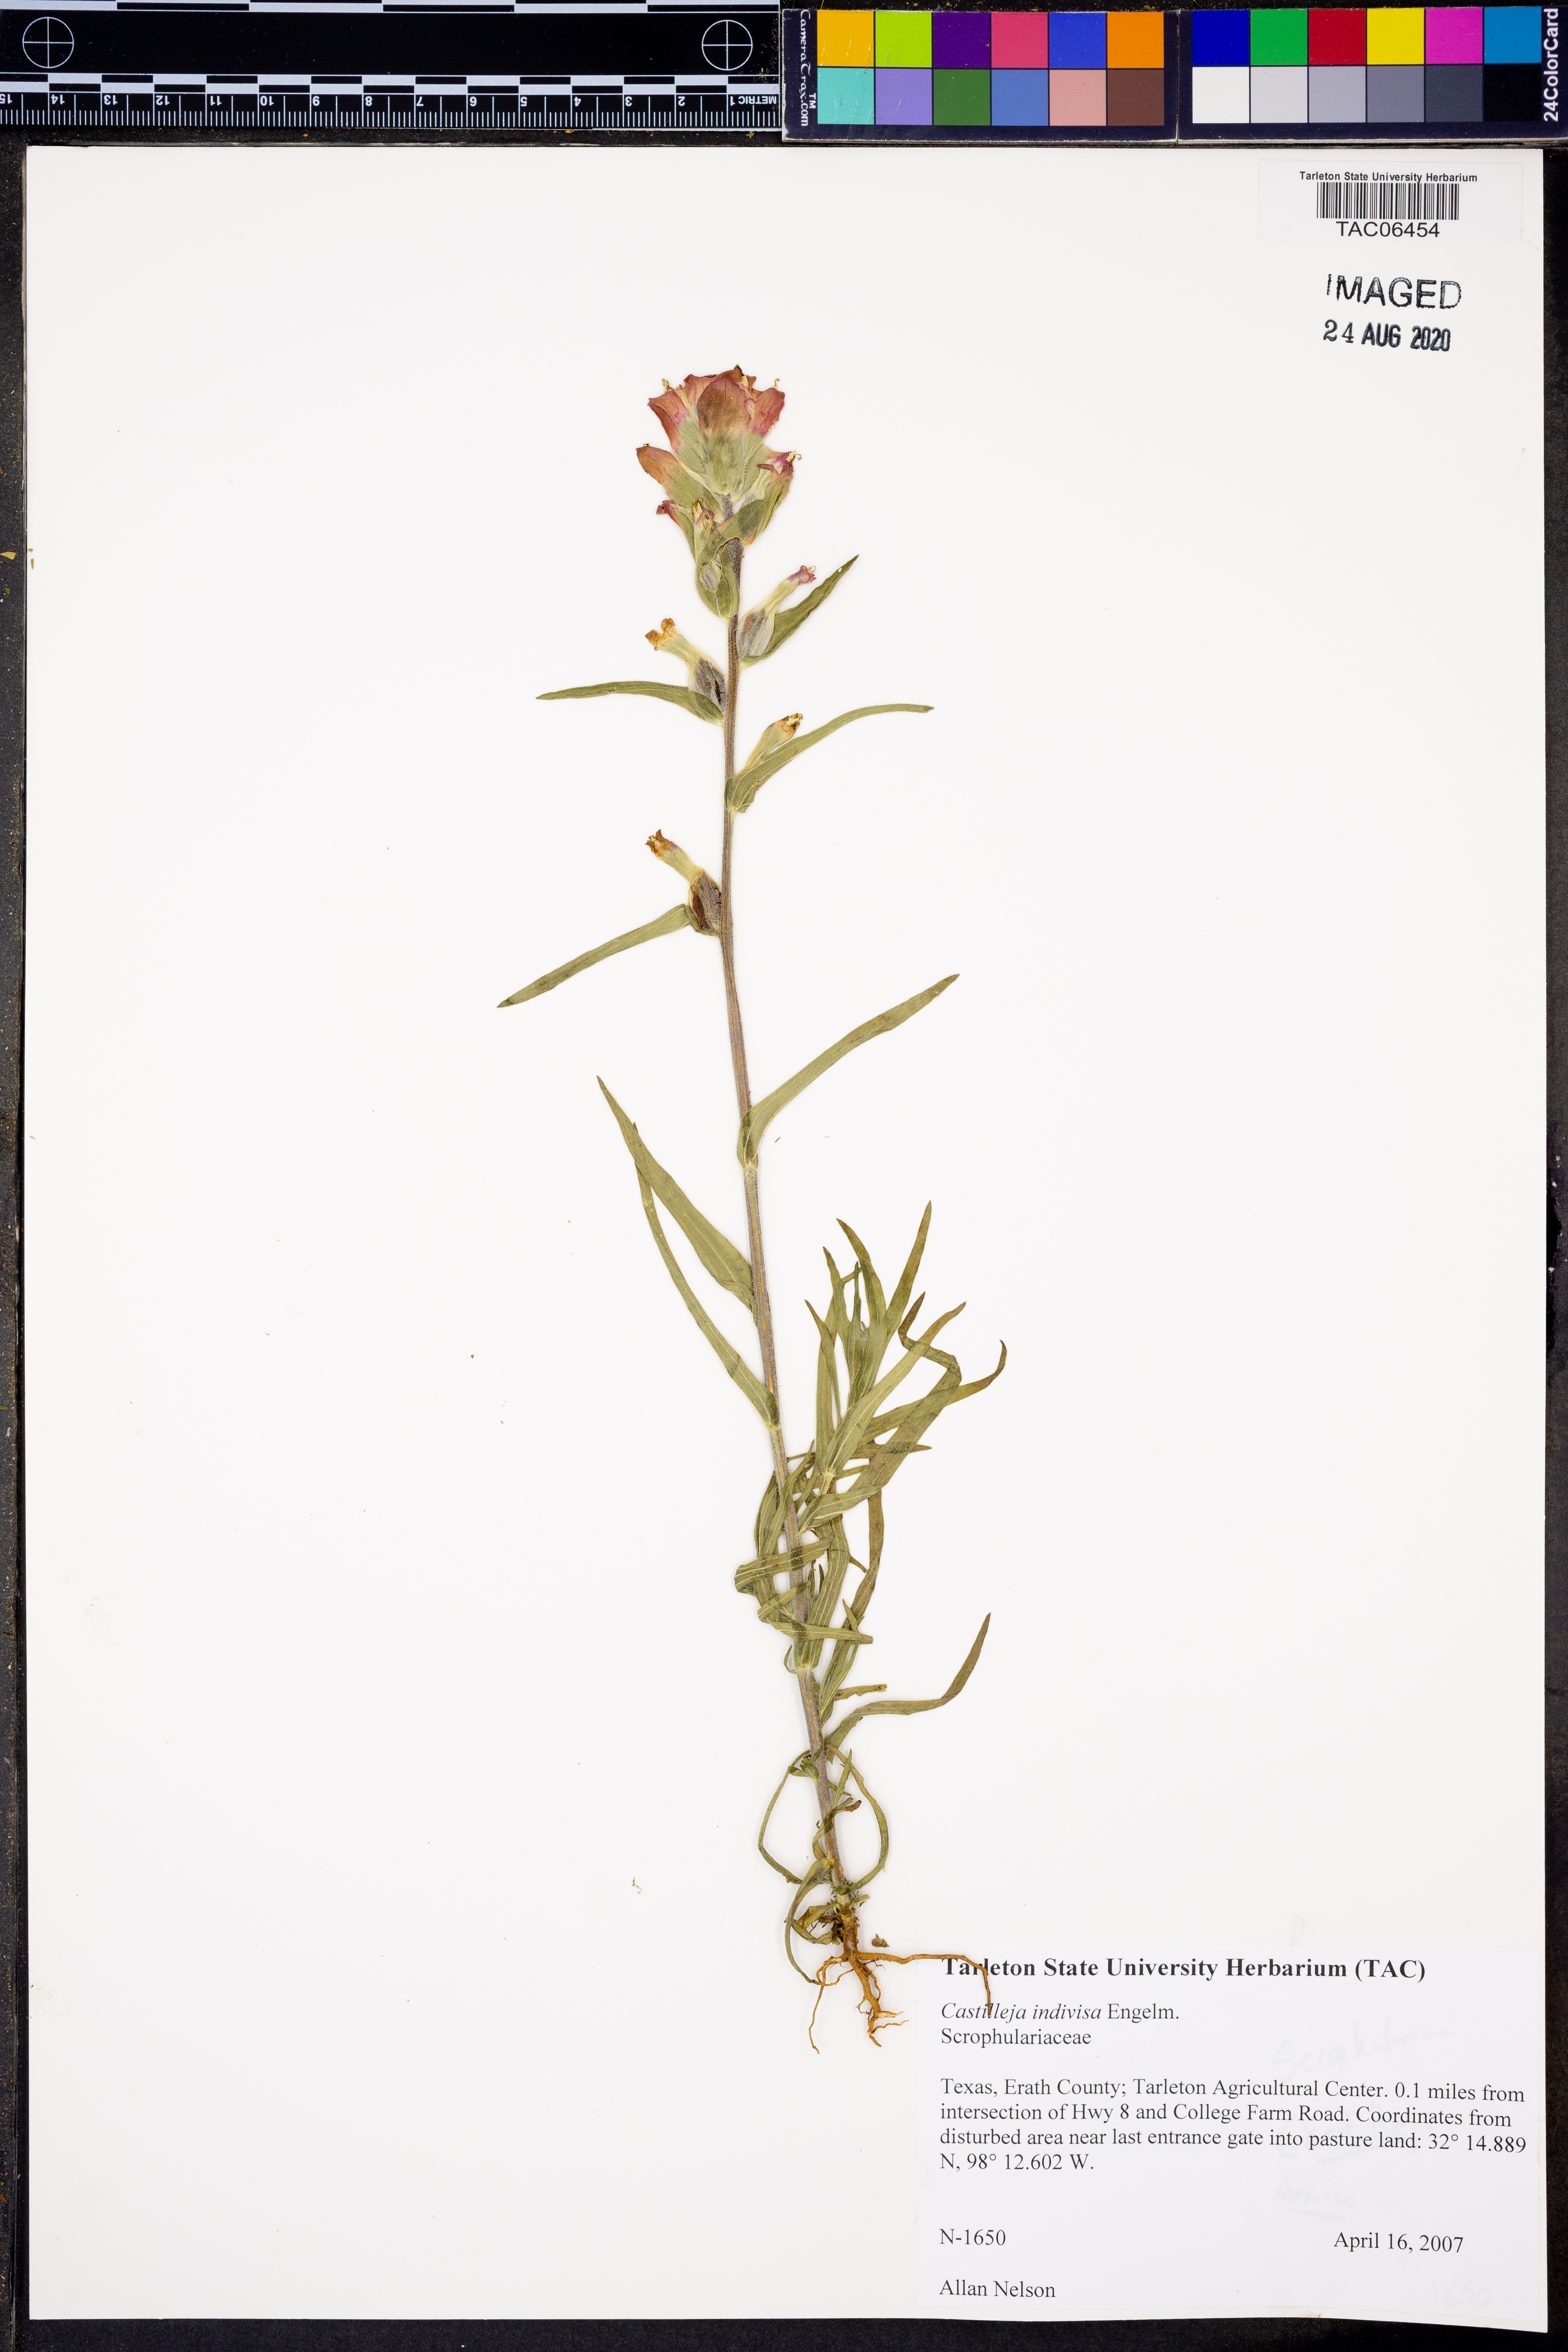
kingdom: Plantae
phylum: Tracheophyta
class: Magnoliopsida
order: Lamiales
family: Orobanchaceae
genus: Castilleja
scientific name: Castilleja indivisa
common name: Texas paintbrush
